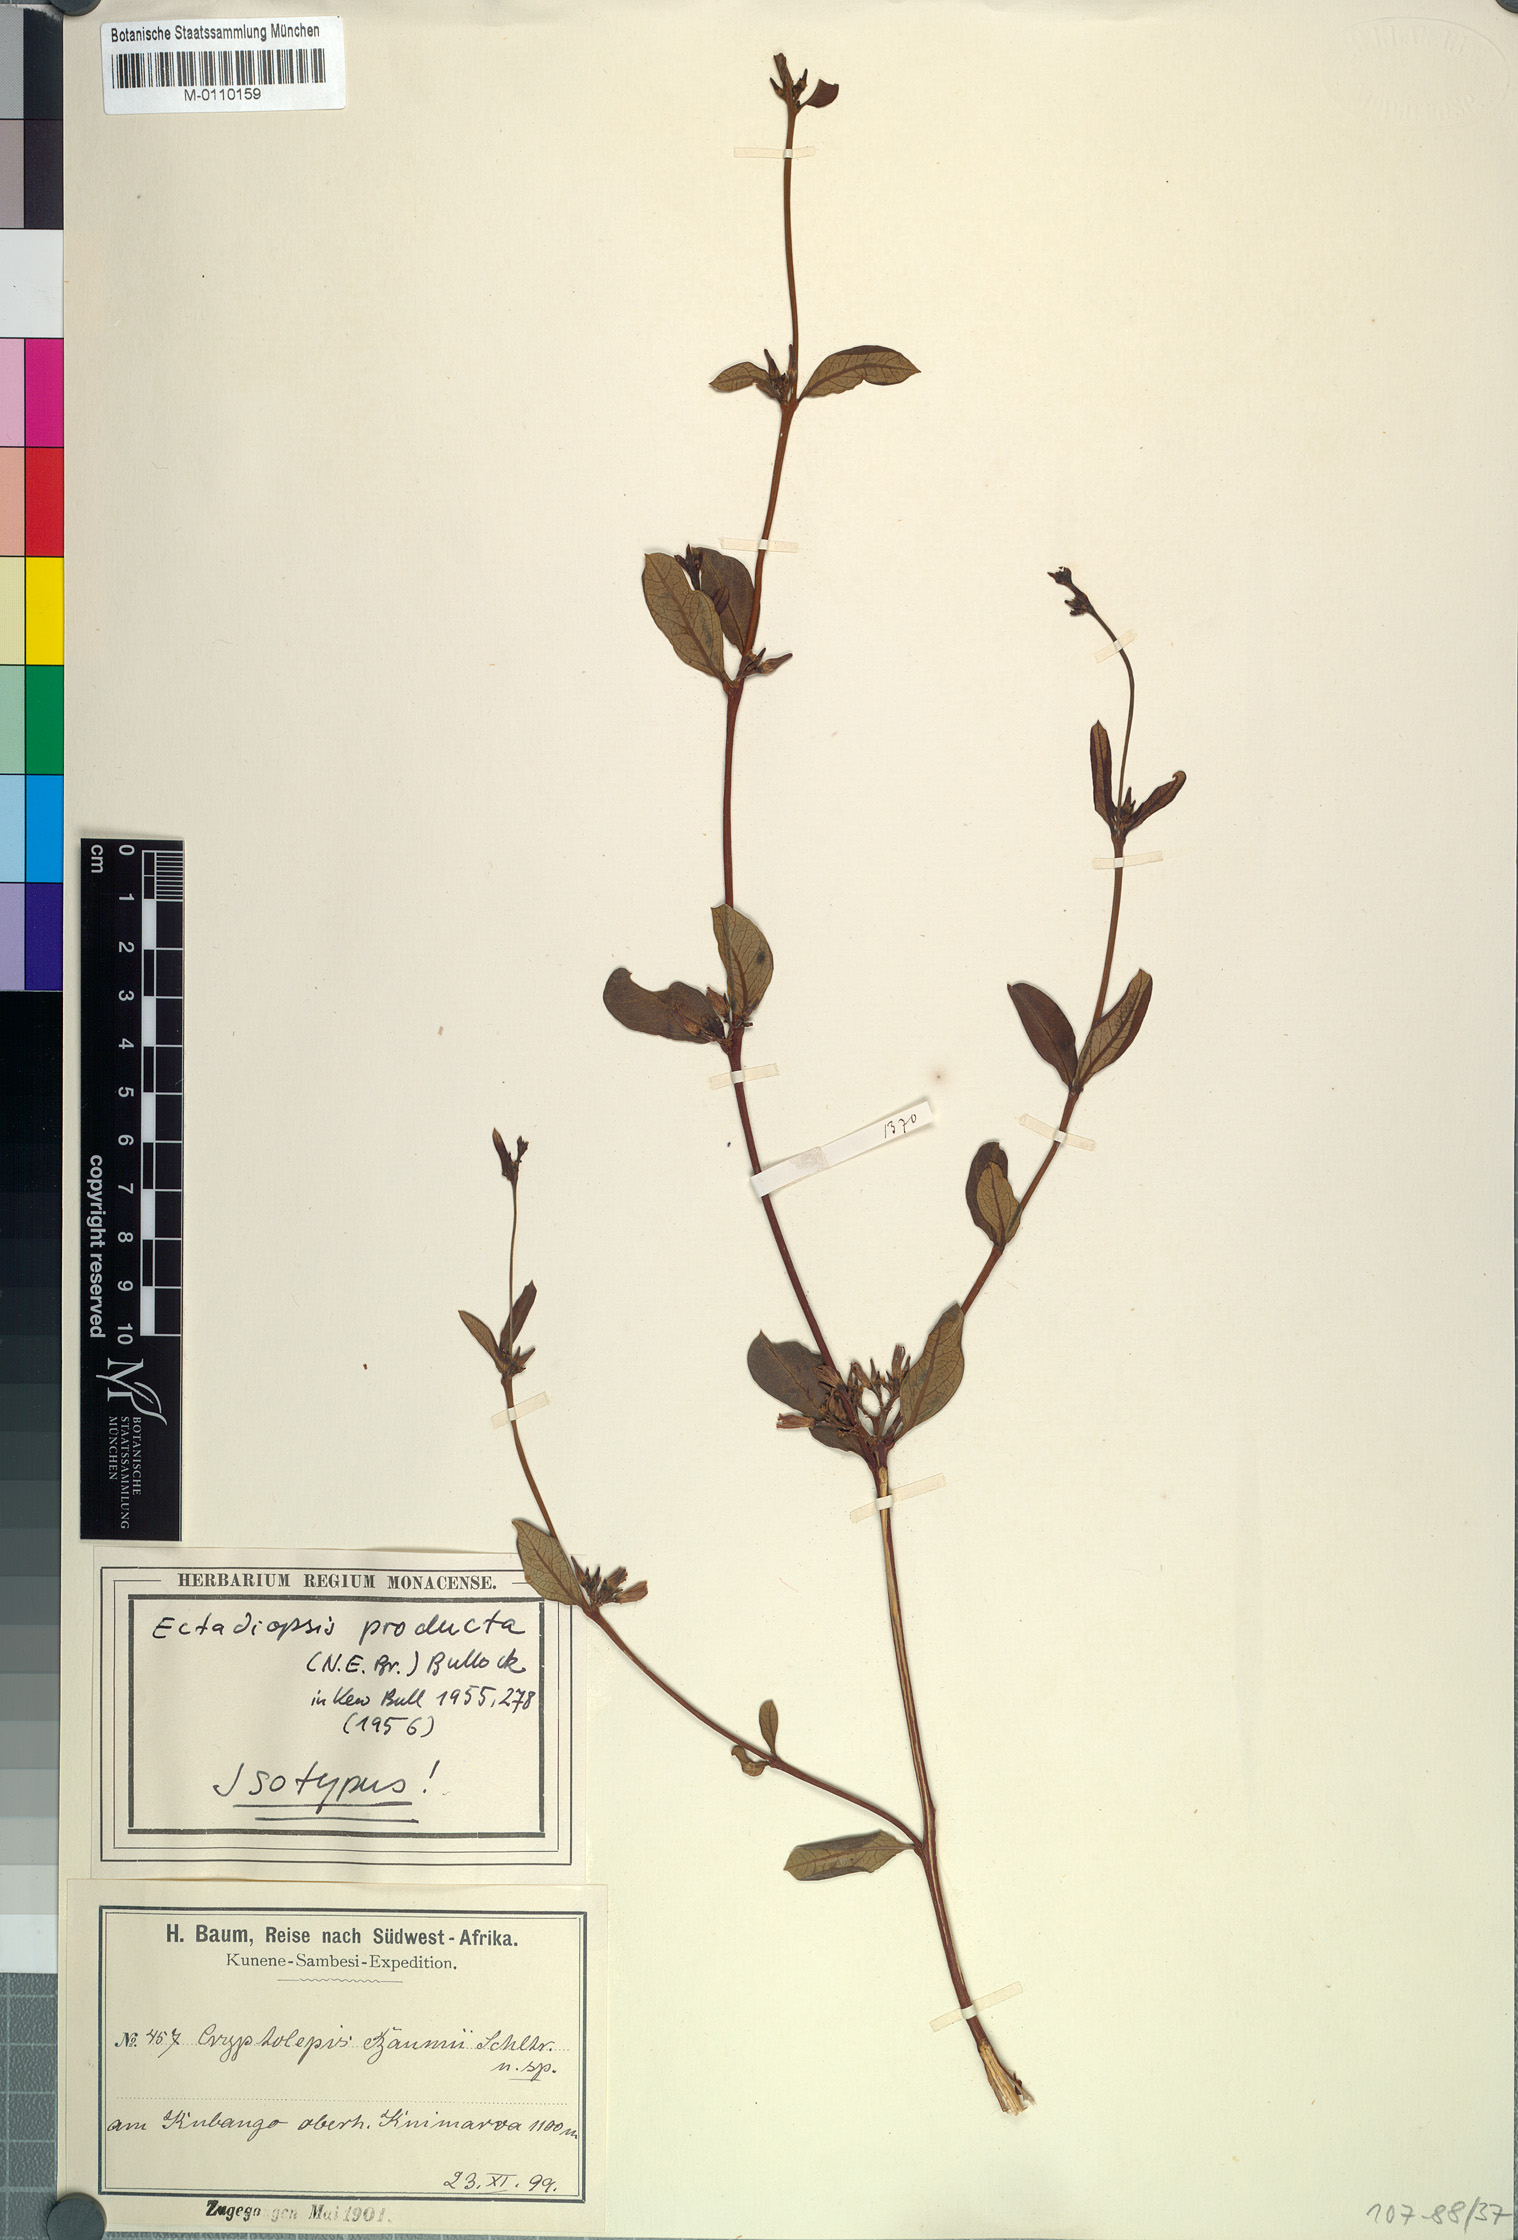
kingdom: Plantae
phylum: Tracheophyta
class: Magnoliopsida
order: Gentianales
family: Apocynaceae
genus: Cryptolepis
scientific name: Cryptolepis oblongifolia
